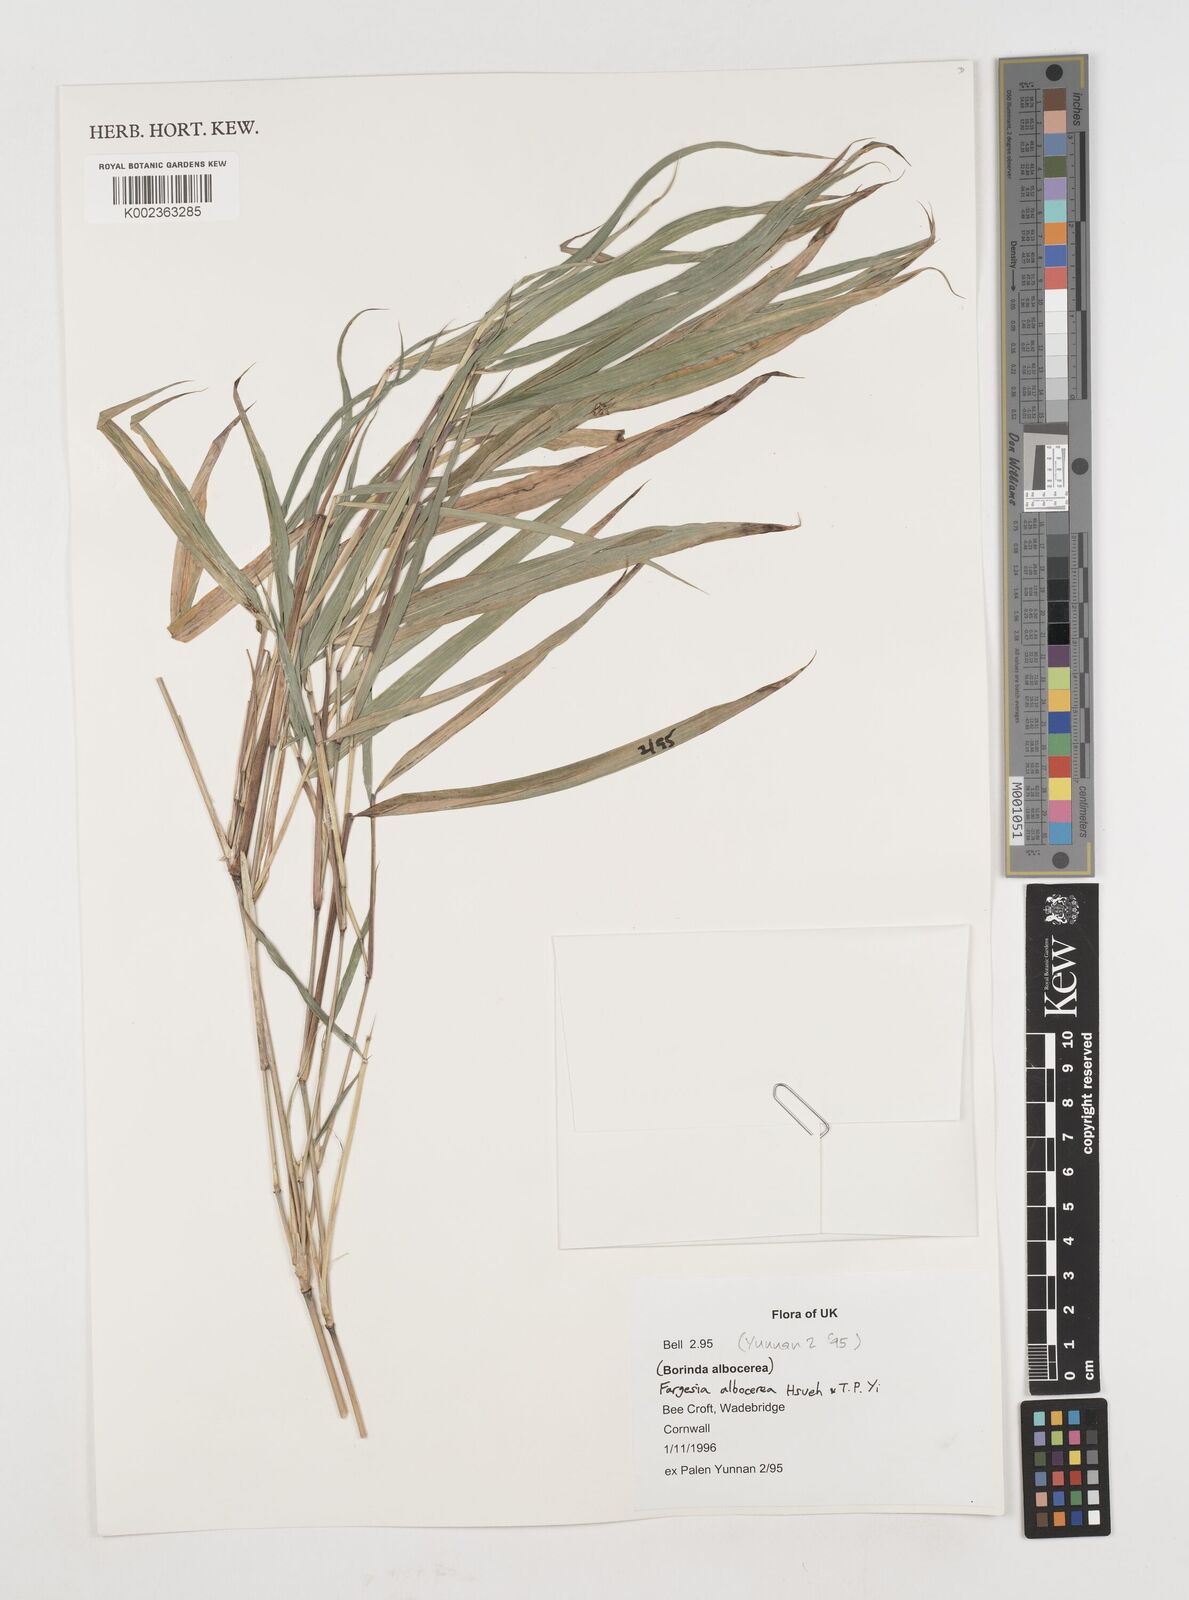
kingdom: Plantae
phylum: Tracheophyta
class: Liliopsida
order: Poales
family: Poaceae
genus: Borinda
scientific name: Borinda albocerea
